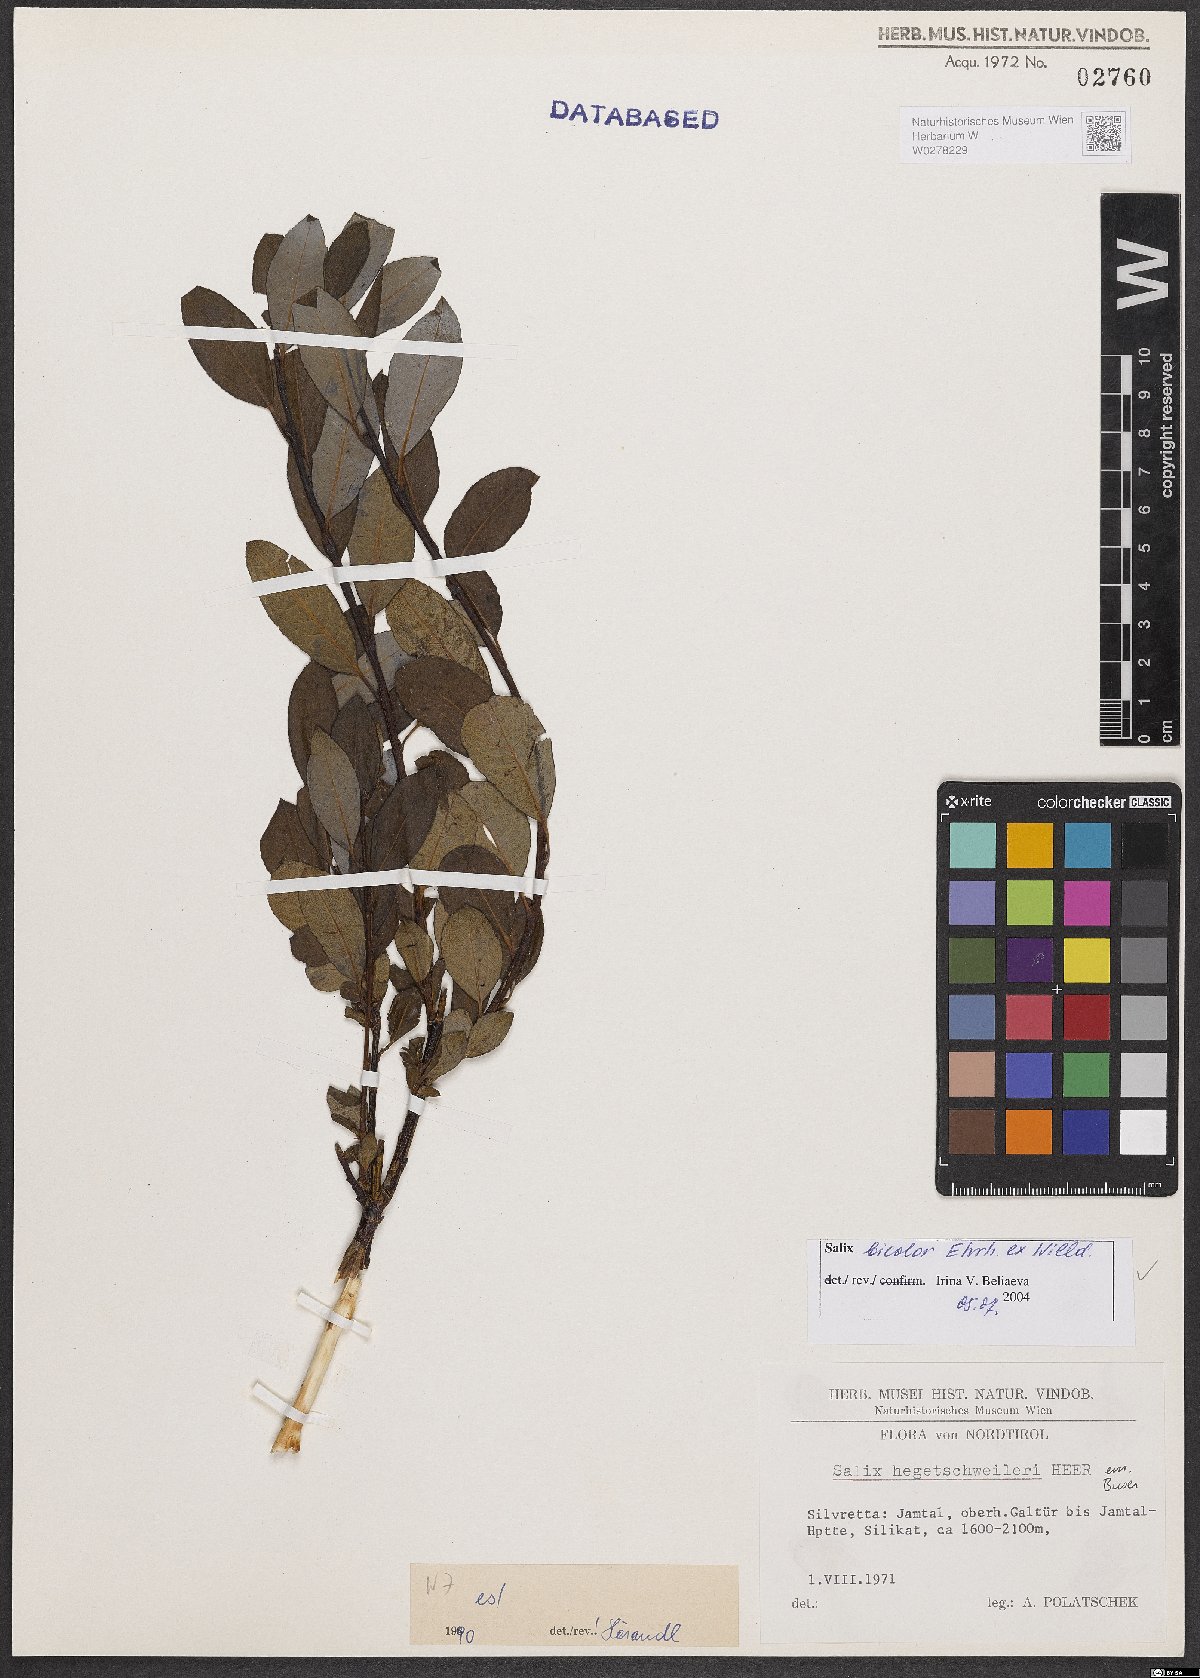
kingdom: Plantae
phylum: Tracheophyta
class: Magnoliopsida
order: Malpighiales
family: Salicaceae
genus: Salix
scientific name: Salix bicolor
